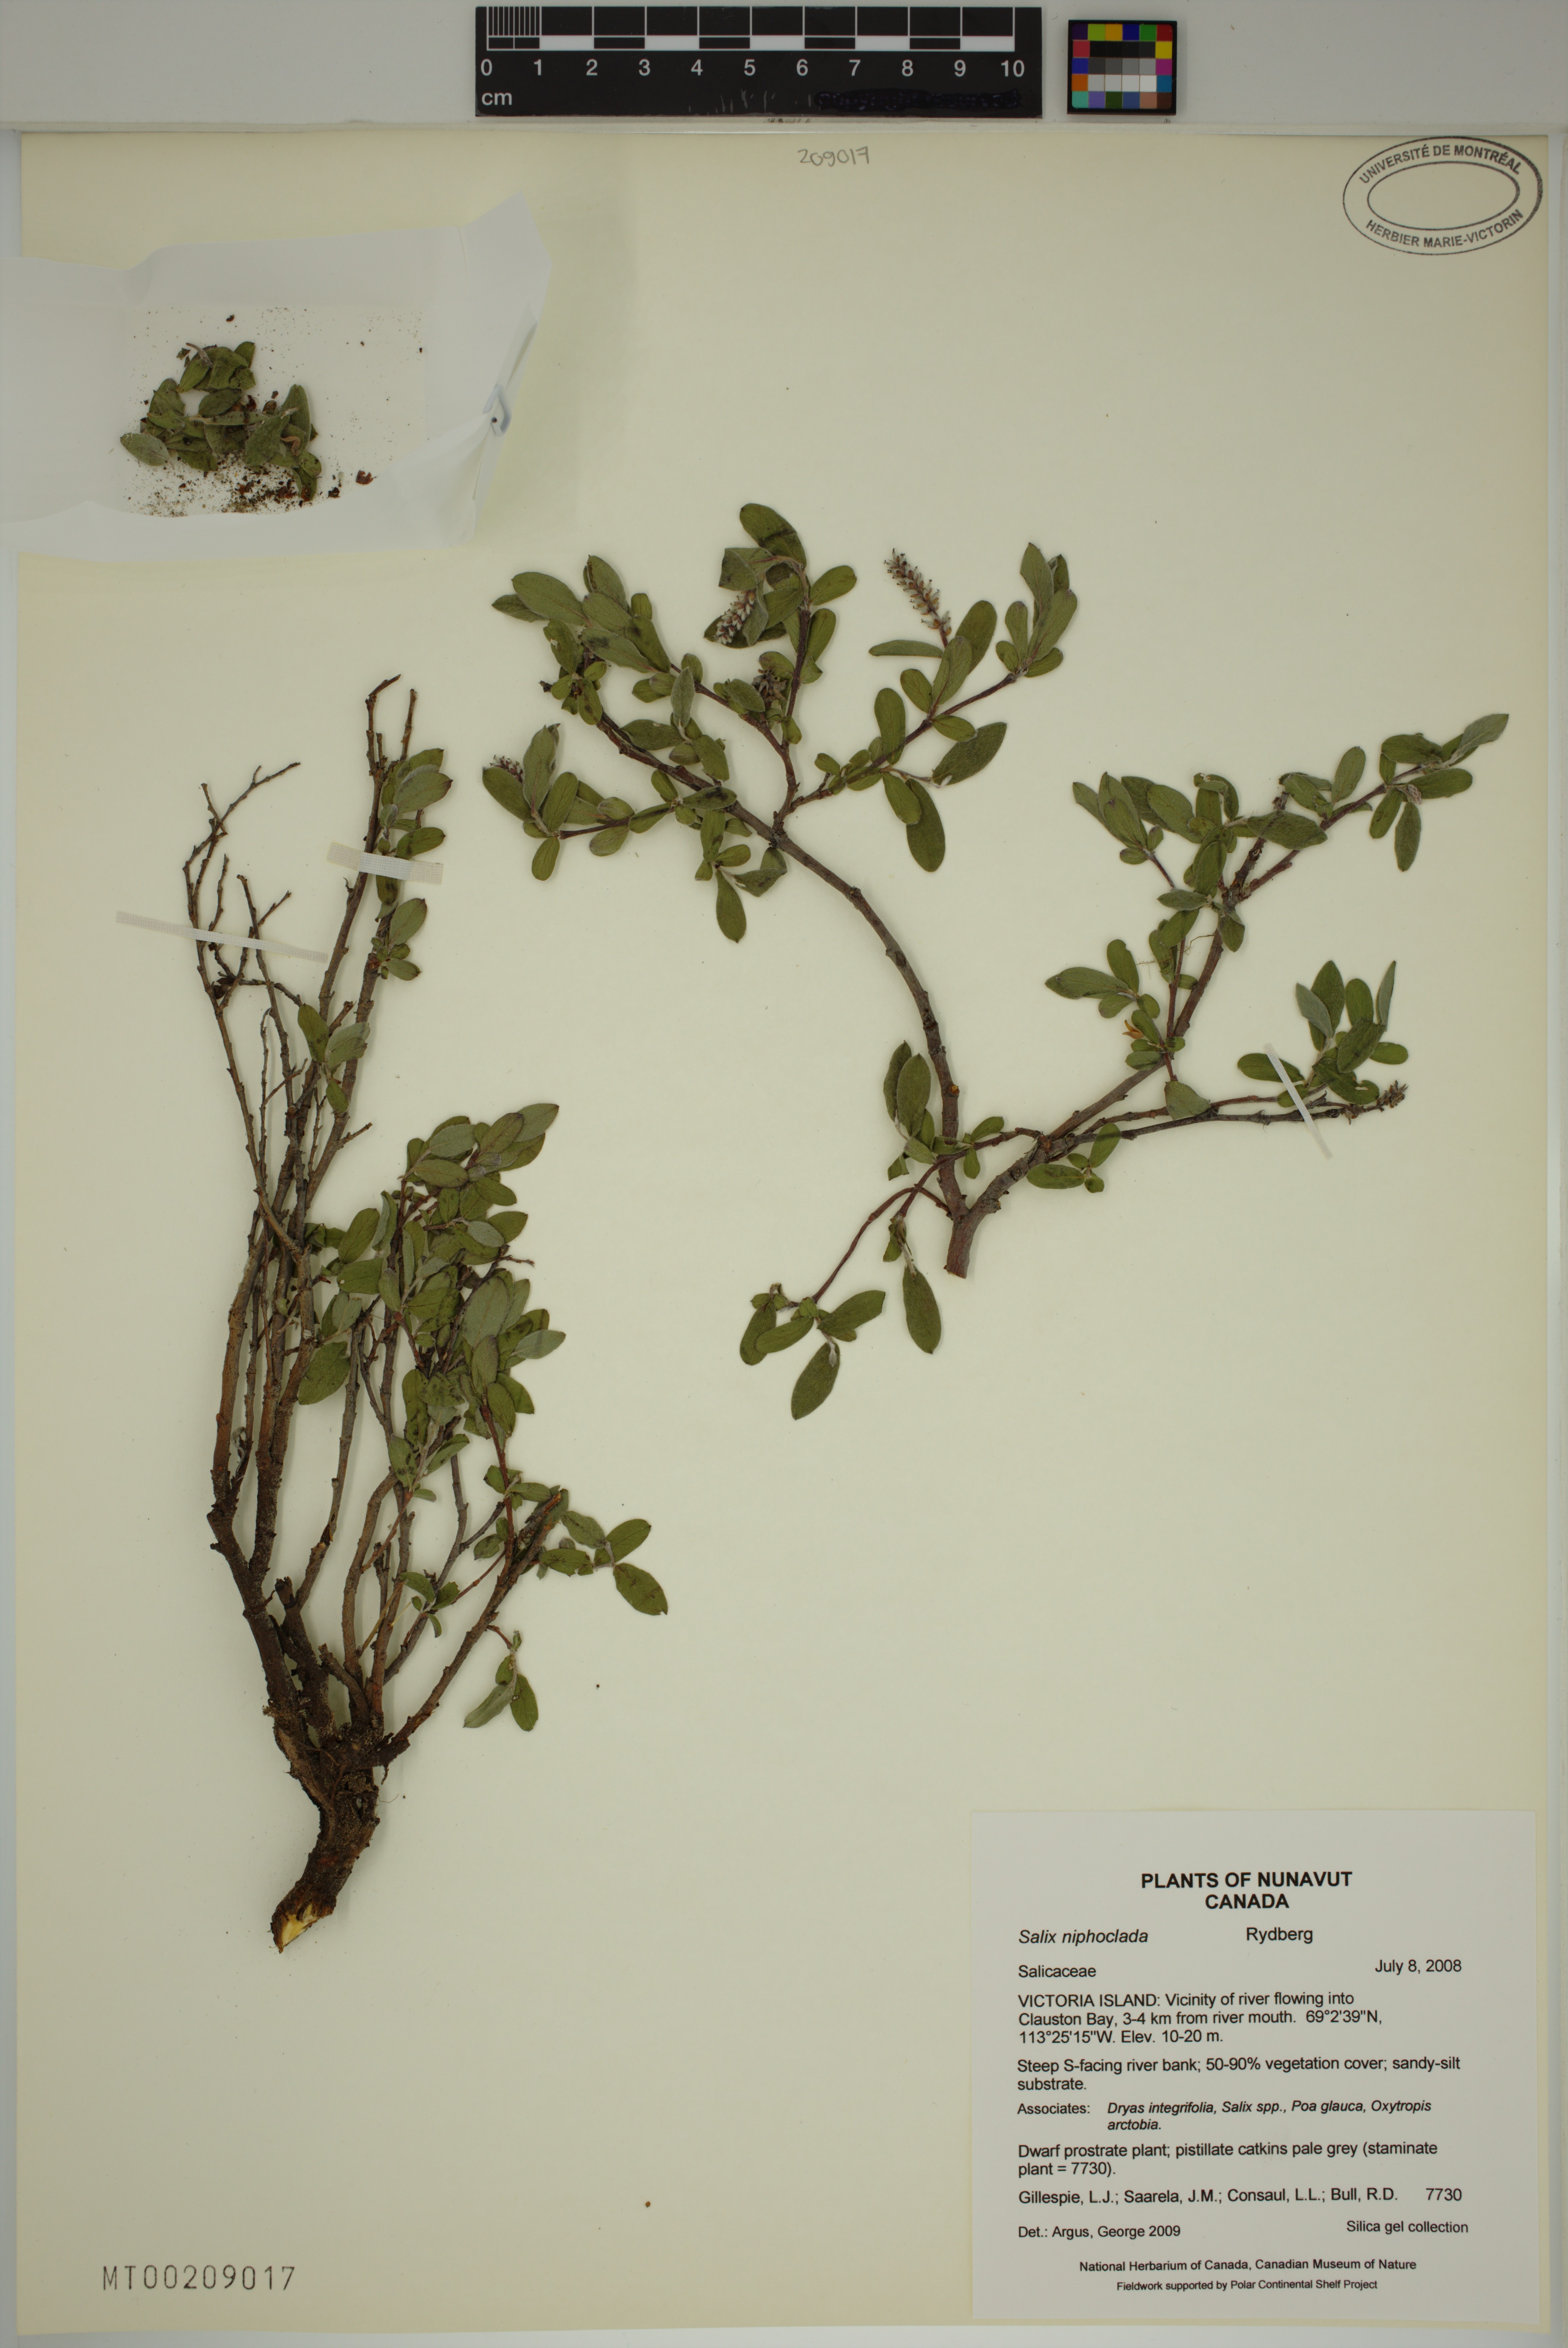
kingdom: Plantae
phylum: Tracheophyta
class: Magnoliopsida
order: Malpighiales
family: Salicaceae
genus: Salix
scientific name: Salix niphoclada
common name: Barren-ground willow
